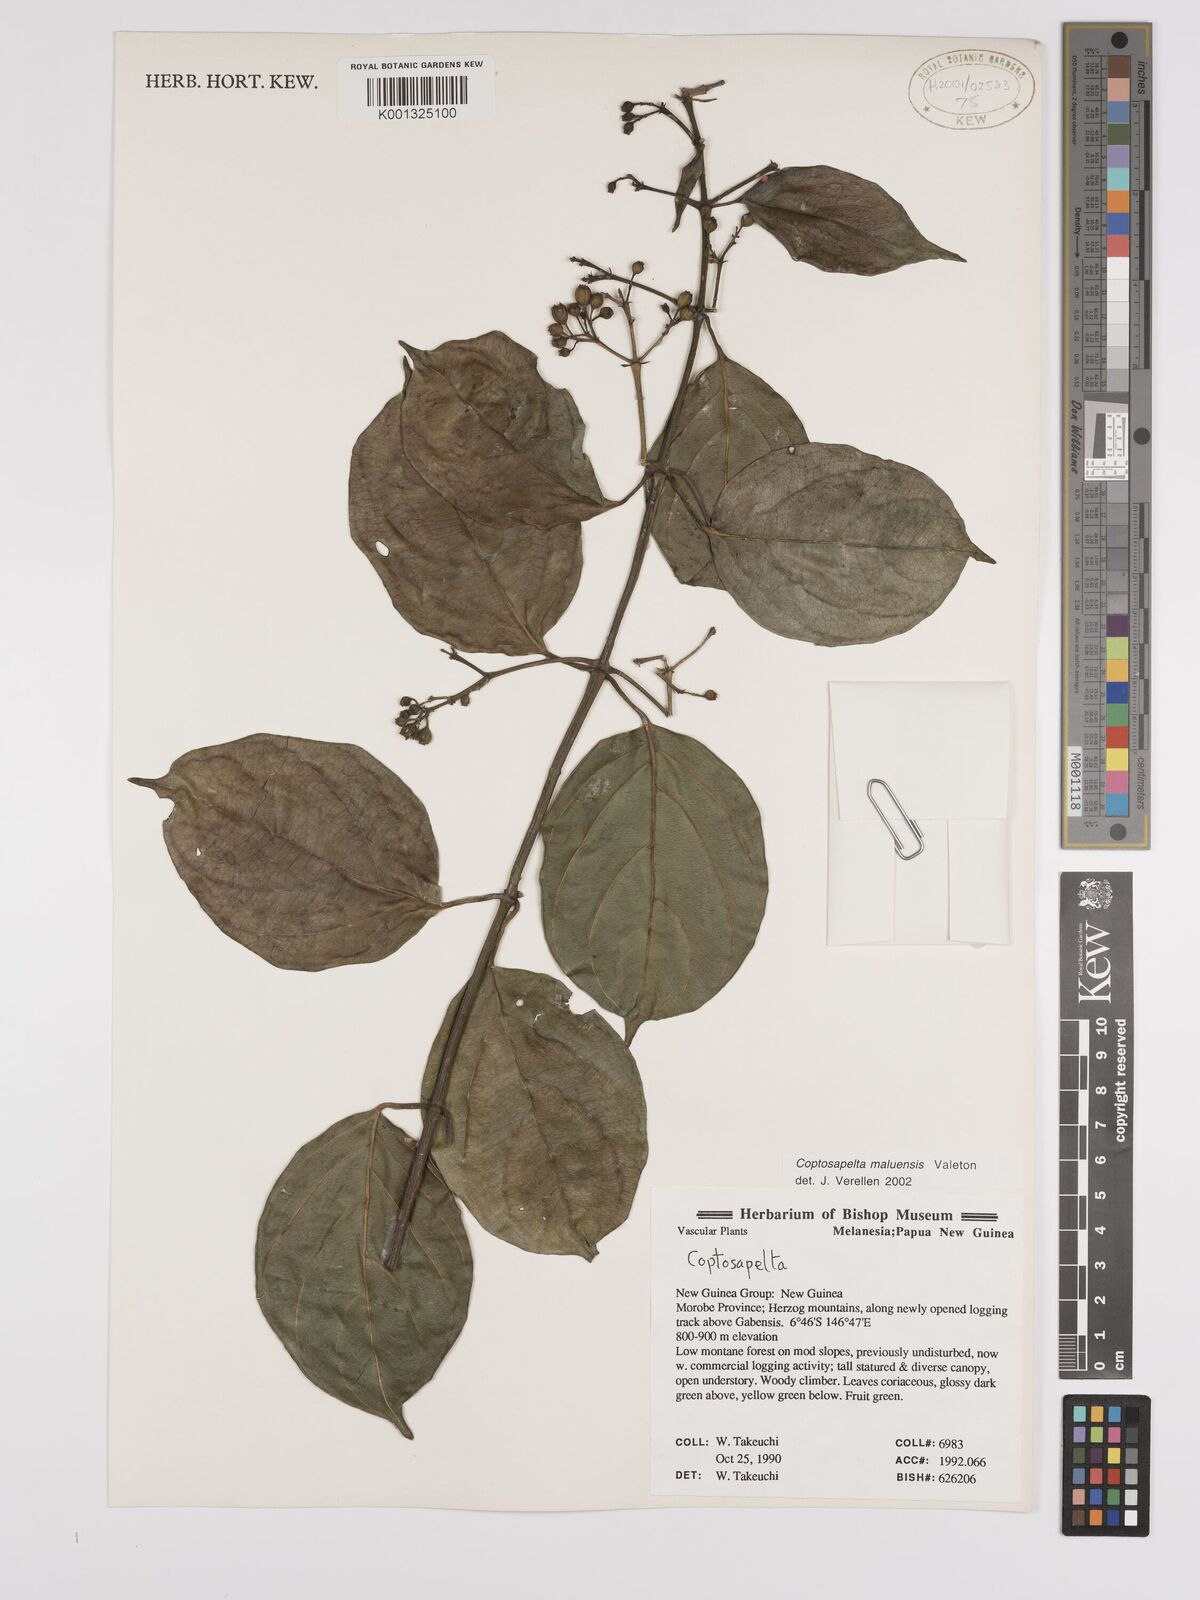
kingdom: Plantae
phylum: Tracheophyta
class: Magnoliopsida
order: Gentianales
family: Rubiaceae
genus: Coptosapelta
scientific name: Coptosapelta maluensis
